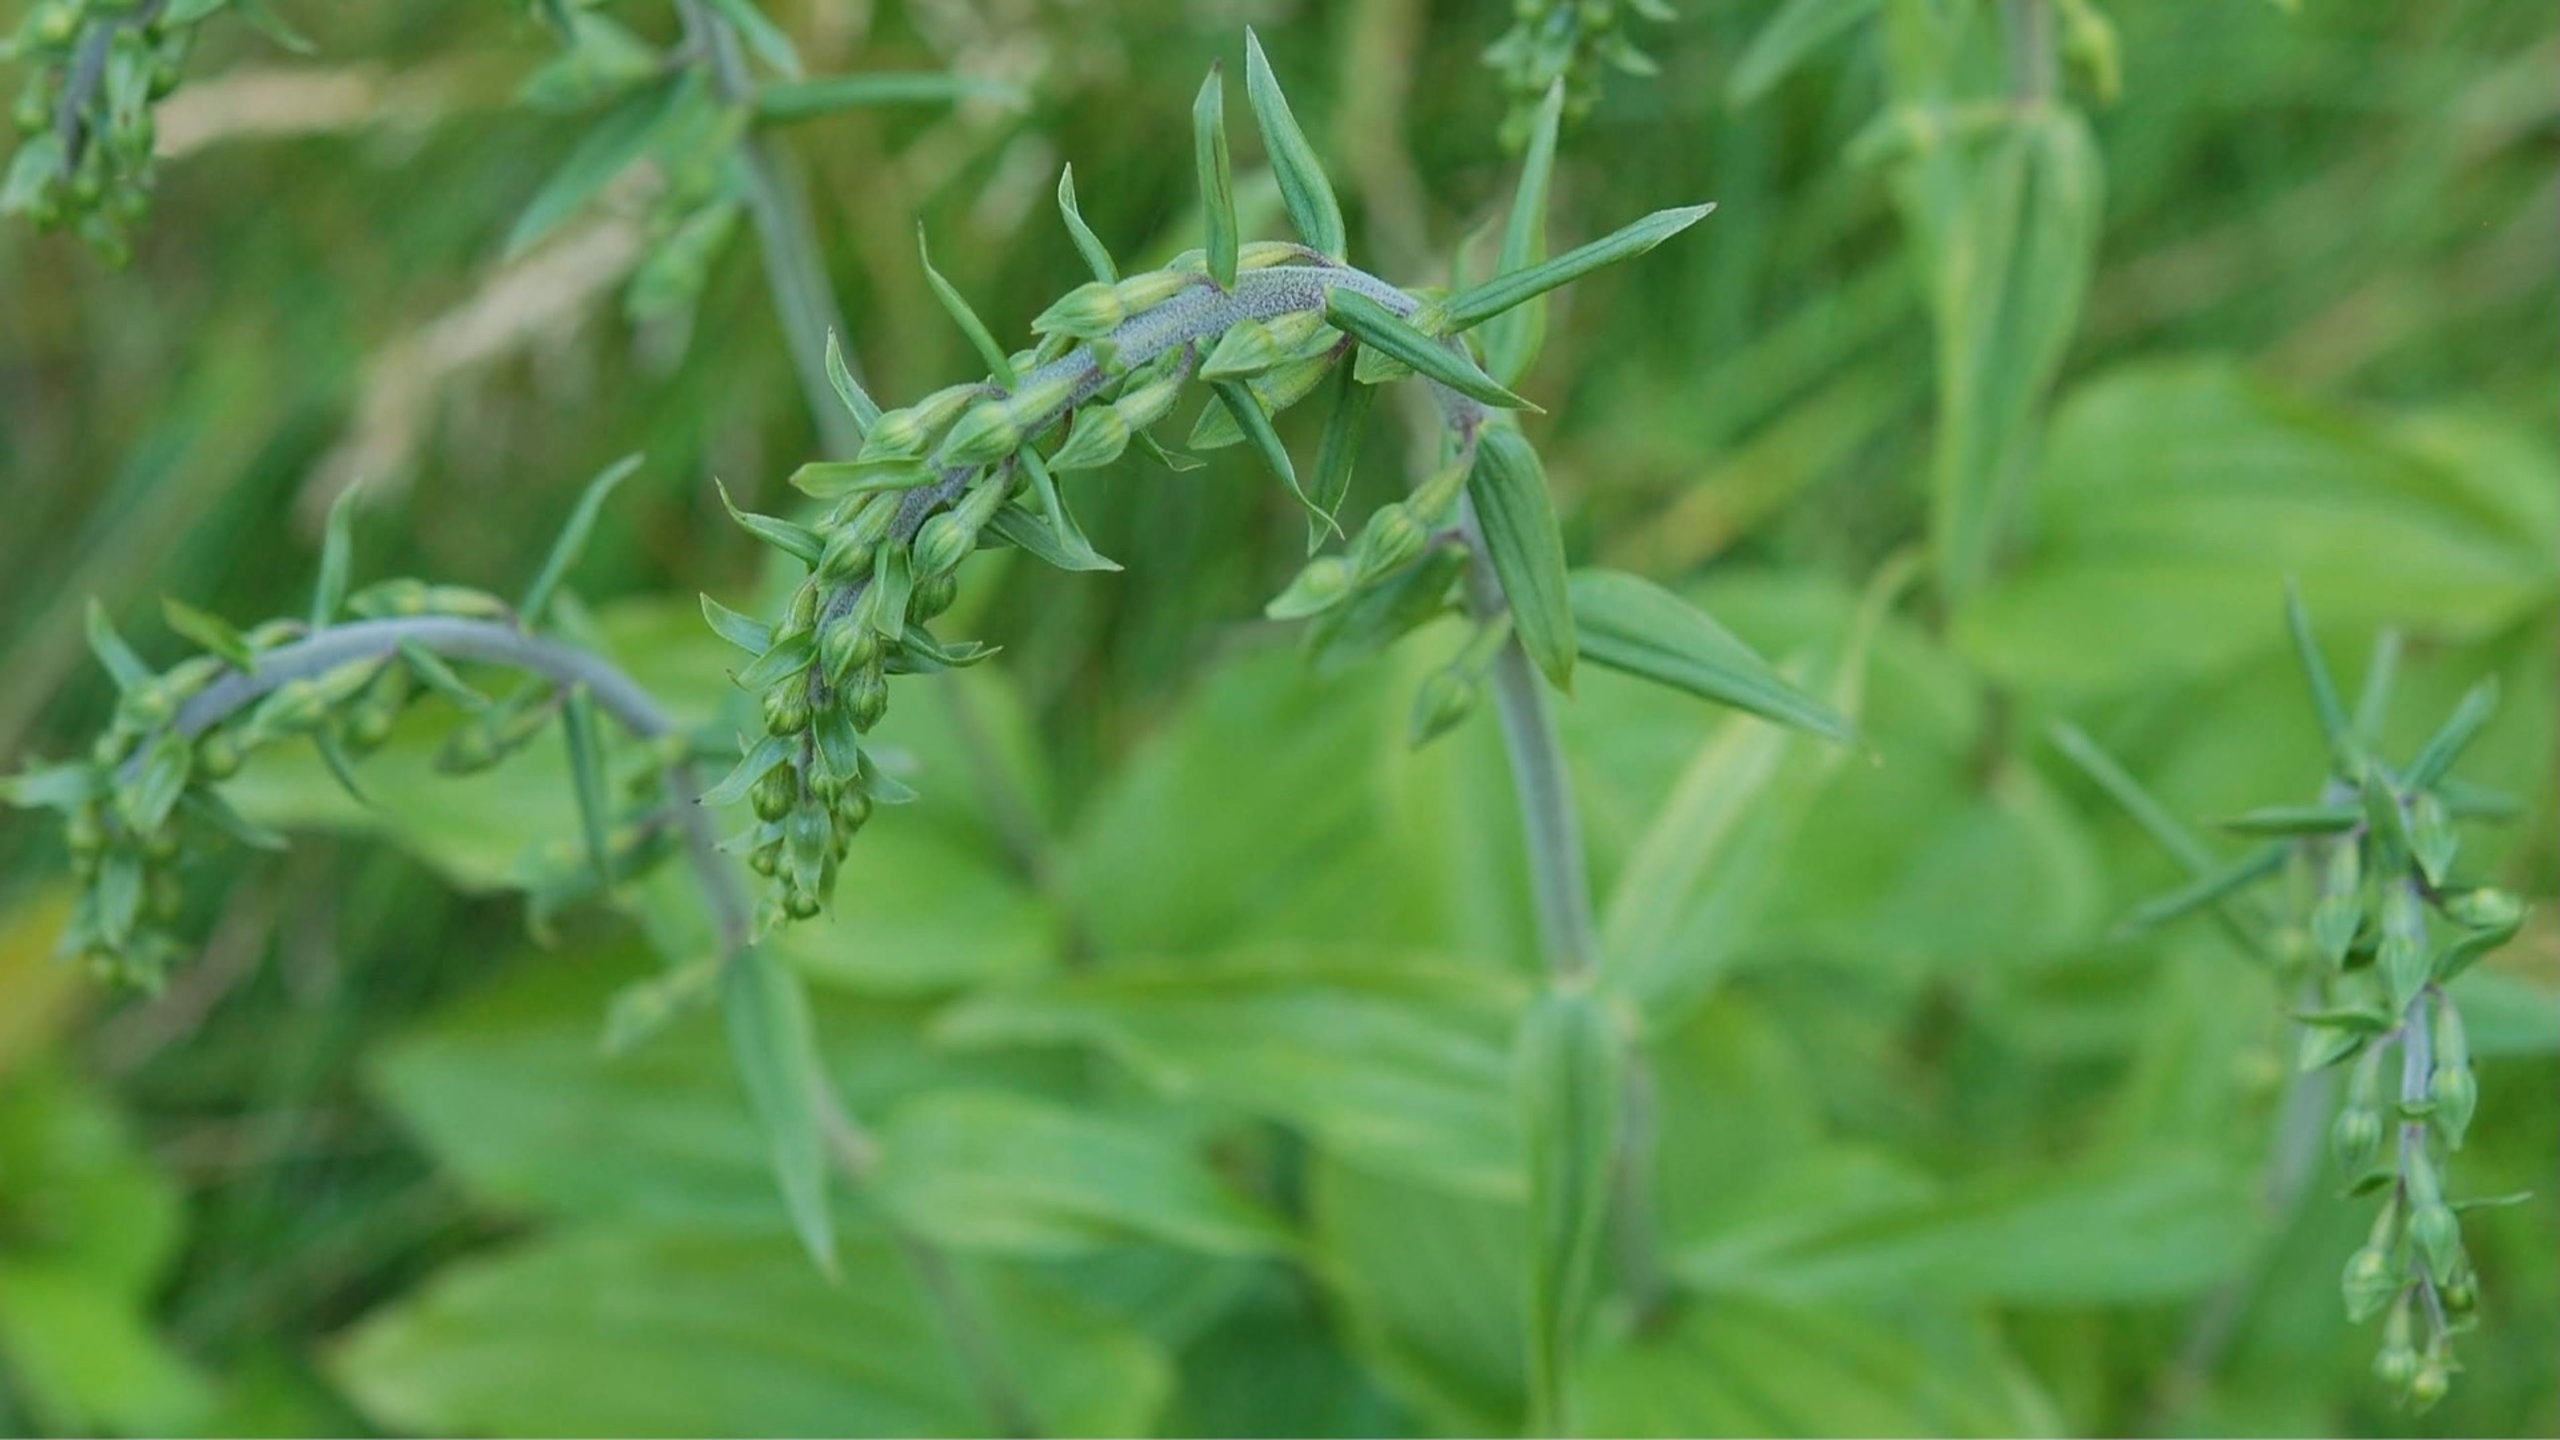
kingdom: Plantae
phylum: Tracheophyta
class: Liliopsida
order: Asparagales
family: Orchidaceae
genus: Epipactis
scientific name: Epipactis helleborine
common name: Skov-hullæbe
